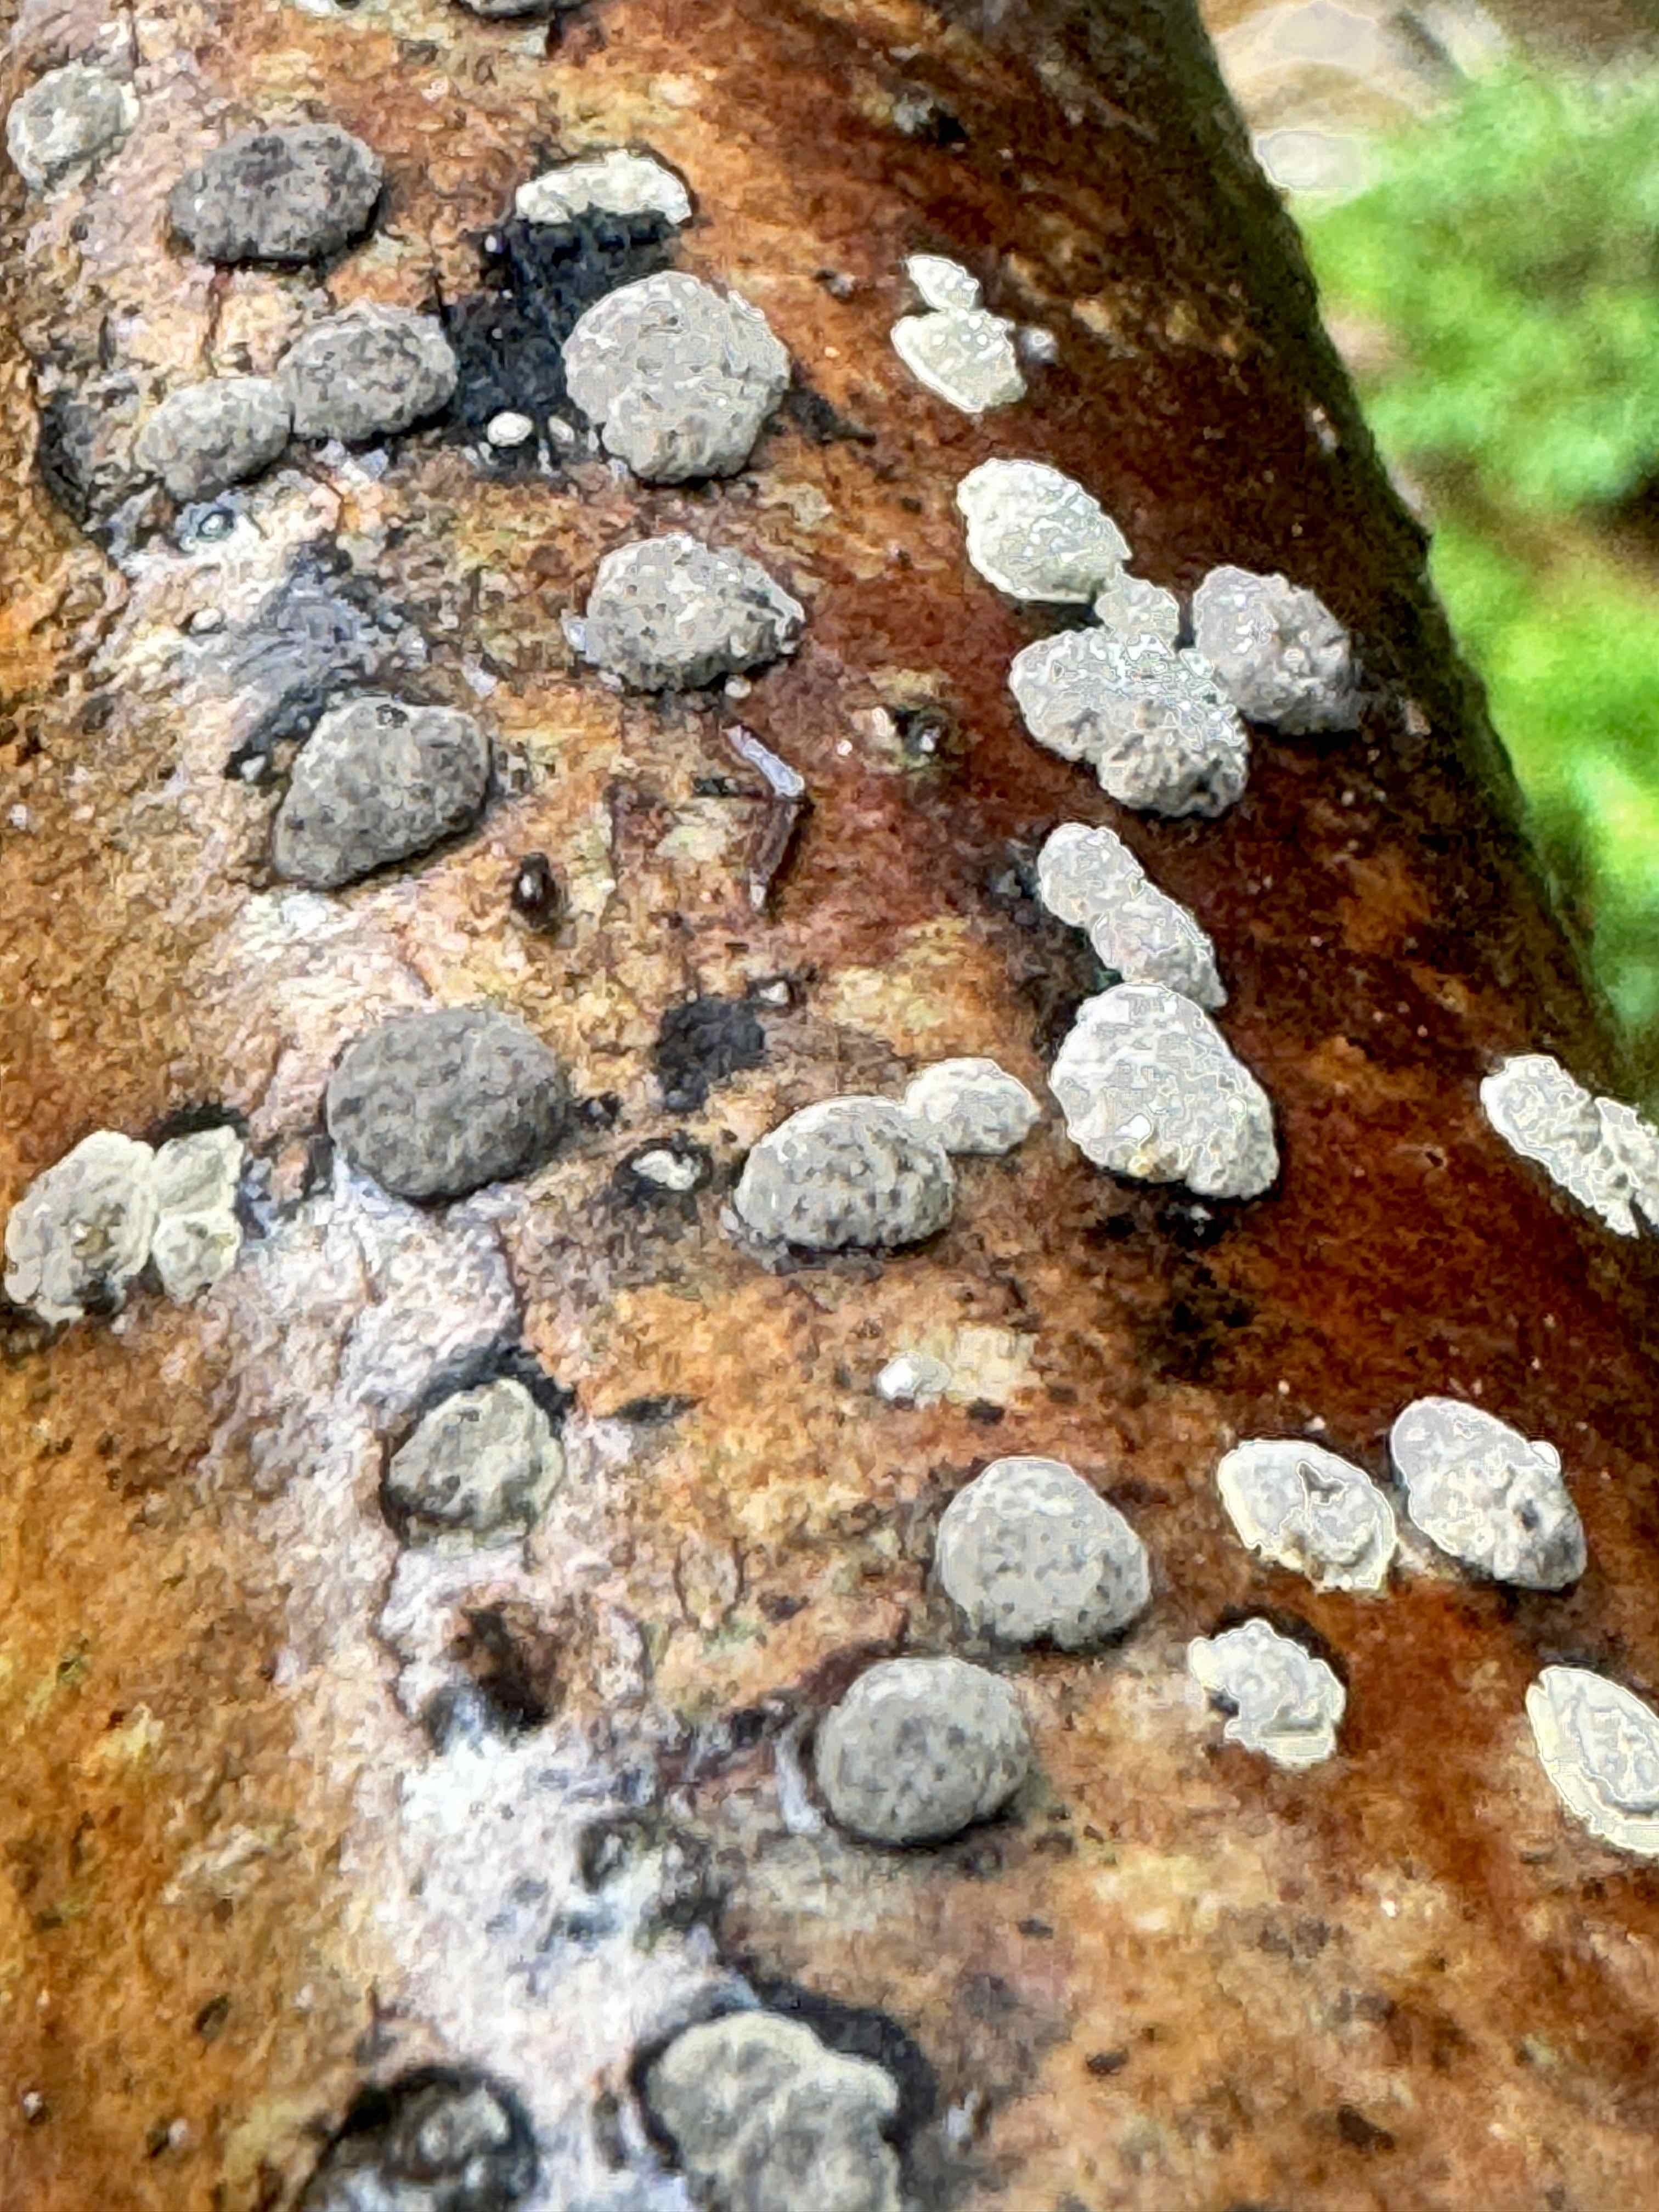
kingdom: Fungi
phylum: Ascomycota
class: Sordariomycetes
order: Xylariales
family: Hypoxylaceae
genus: Hypoxylon
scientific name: Hypoxylon fuscum
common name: kegleformet kulbær
